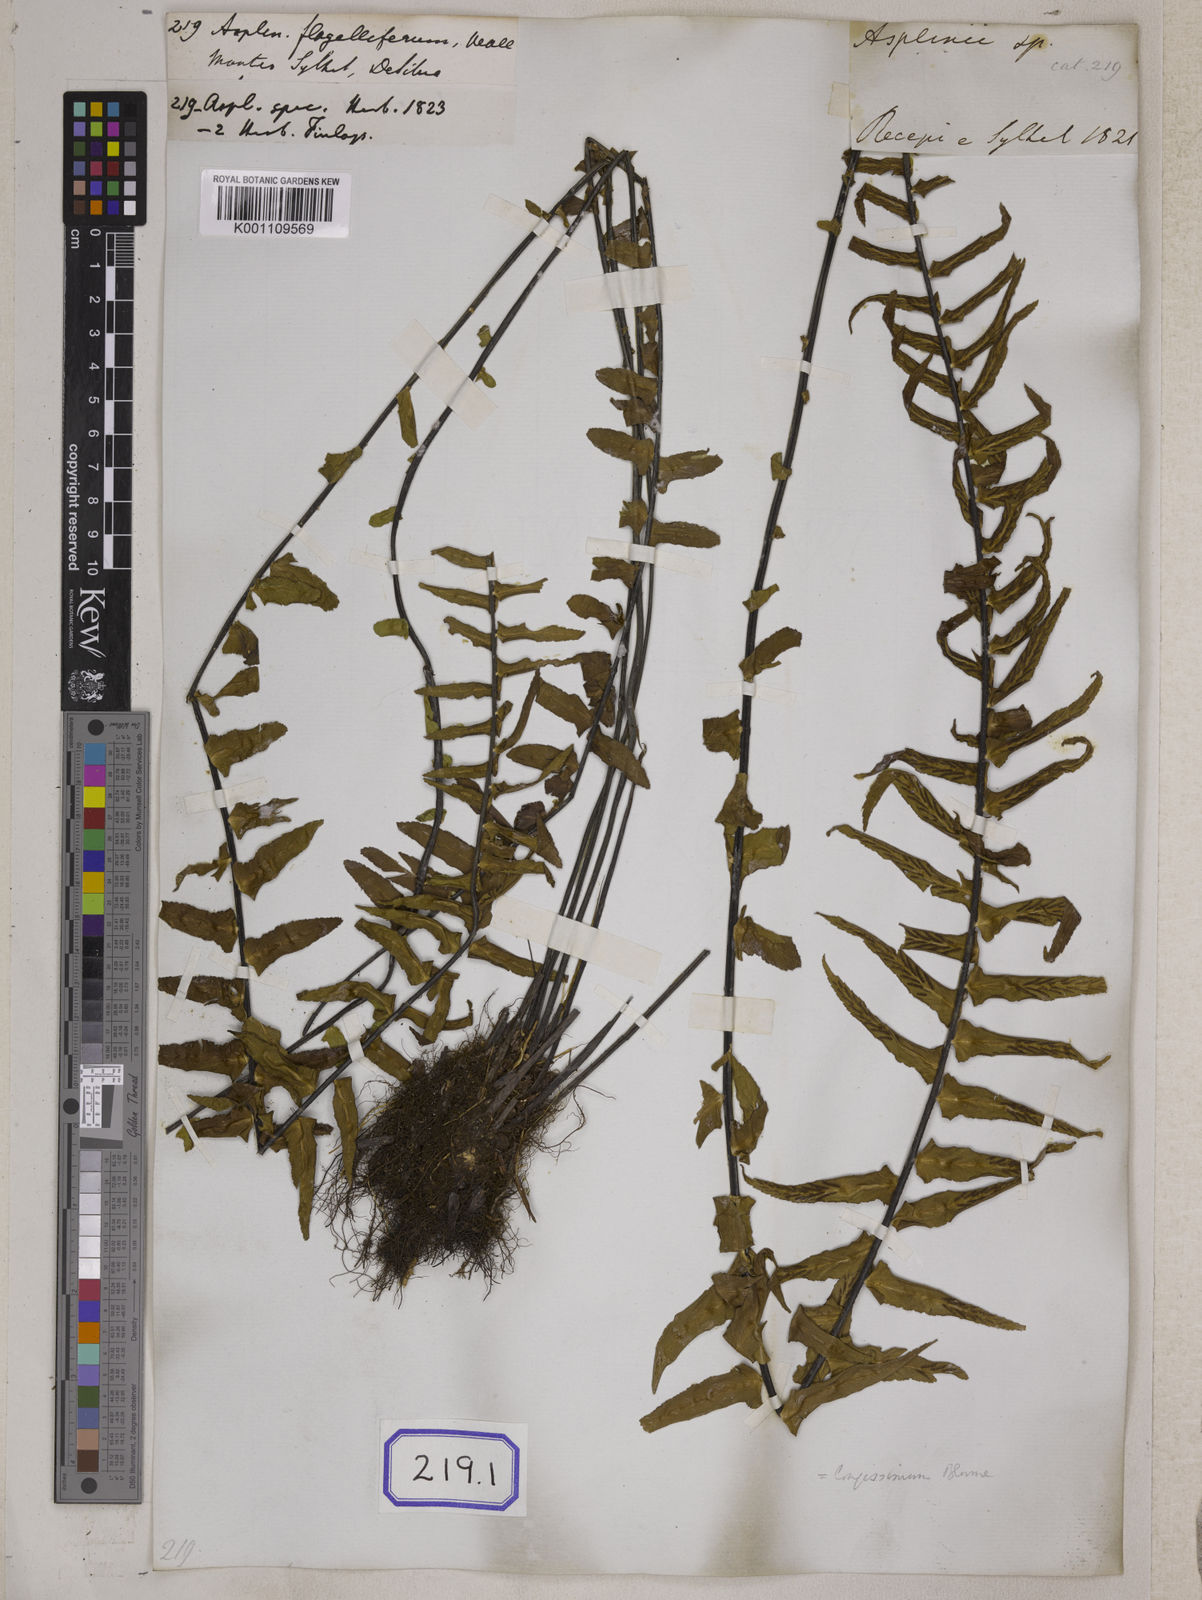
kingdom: Plantae
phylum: Tracheophyta
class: Polypodiopsida
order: Polypodiales
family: Aspleniaceae
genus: Asplenium
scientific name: Asplenium longissimum
